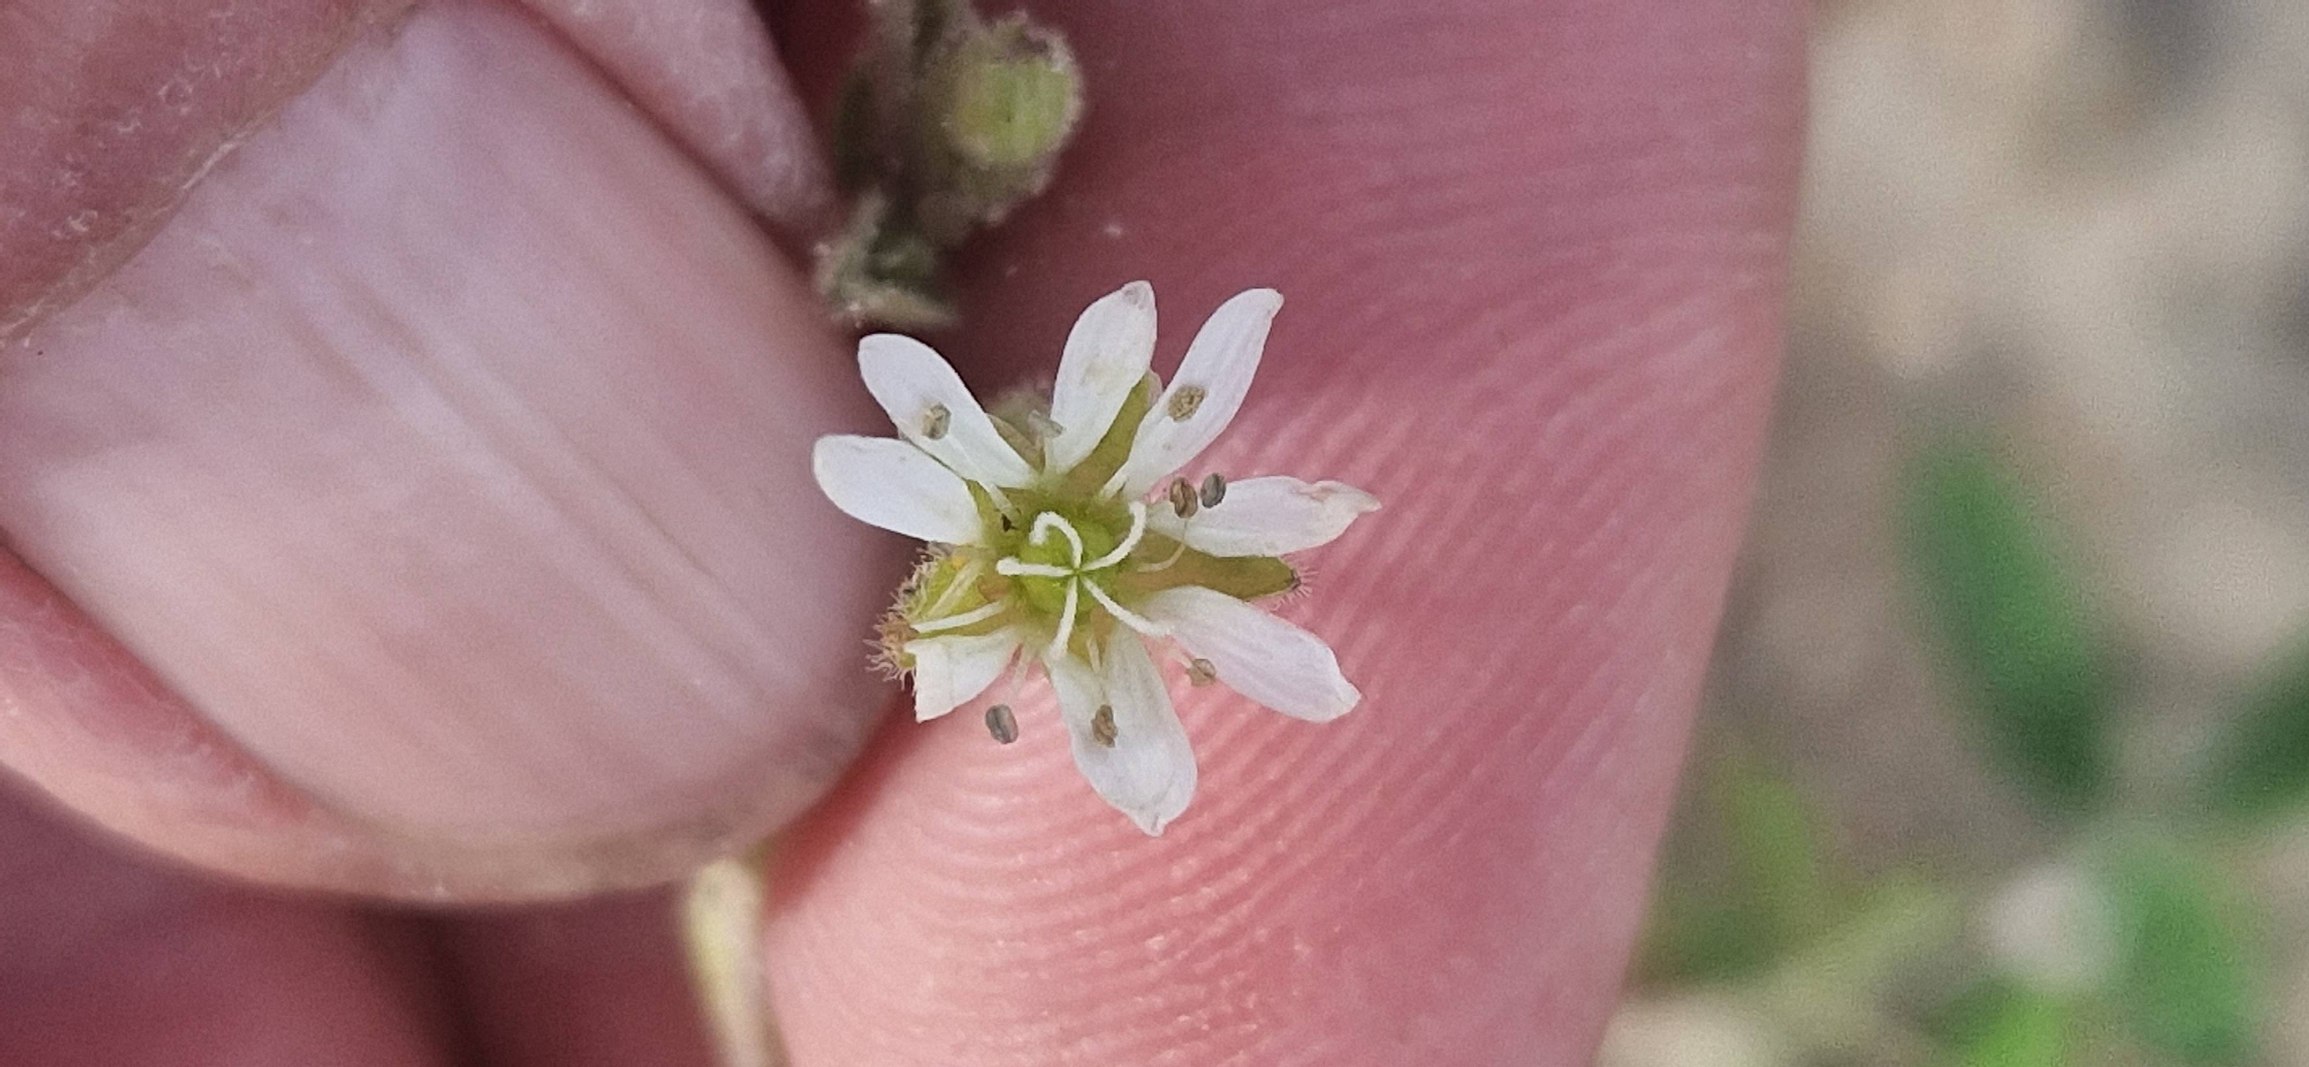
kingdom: Plantae
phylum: Tracheophyta
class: Magnoliopsida
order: Caryophyllales
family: Caryophyllaceae
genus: Stellaria
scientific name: Stellaria aquatica
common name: Kløvkrone
